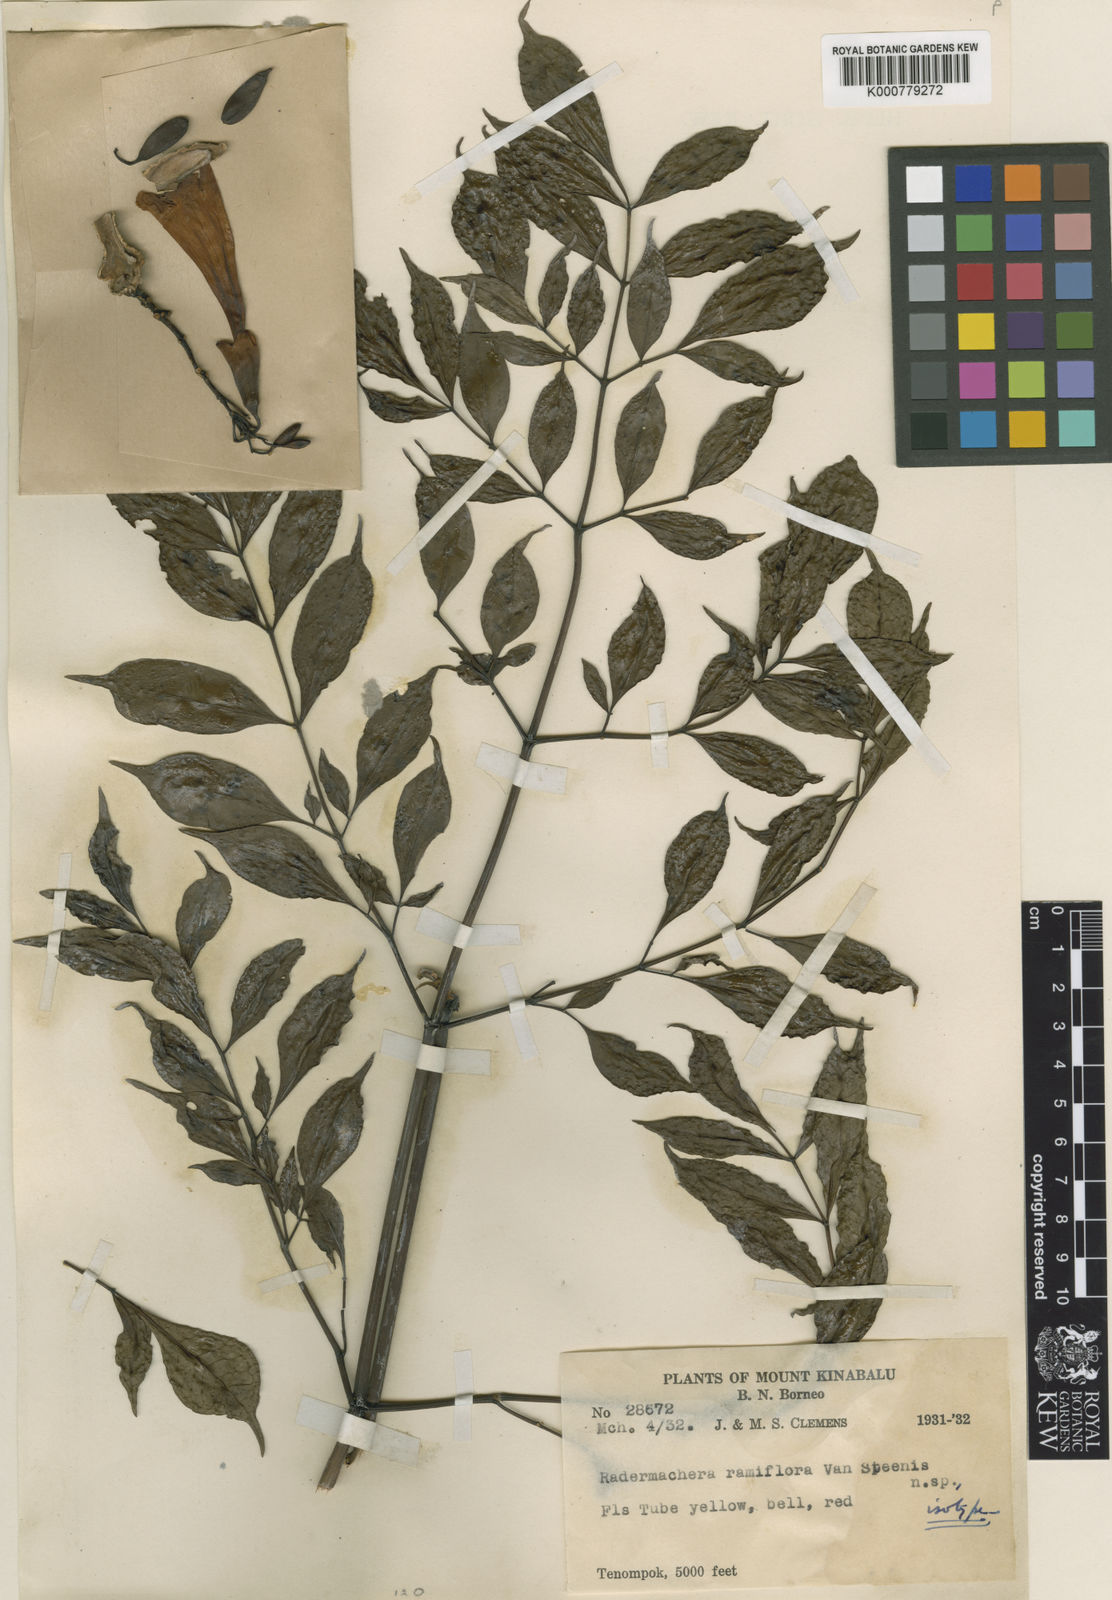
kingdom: Plantae
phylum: Tracheophyta
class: Magnoliopsida
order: Lamiales
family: Bignoniaceae
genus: Radermachera
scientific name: Radermachera ramiflora
